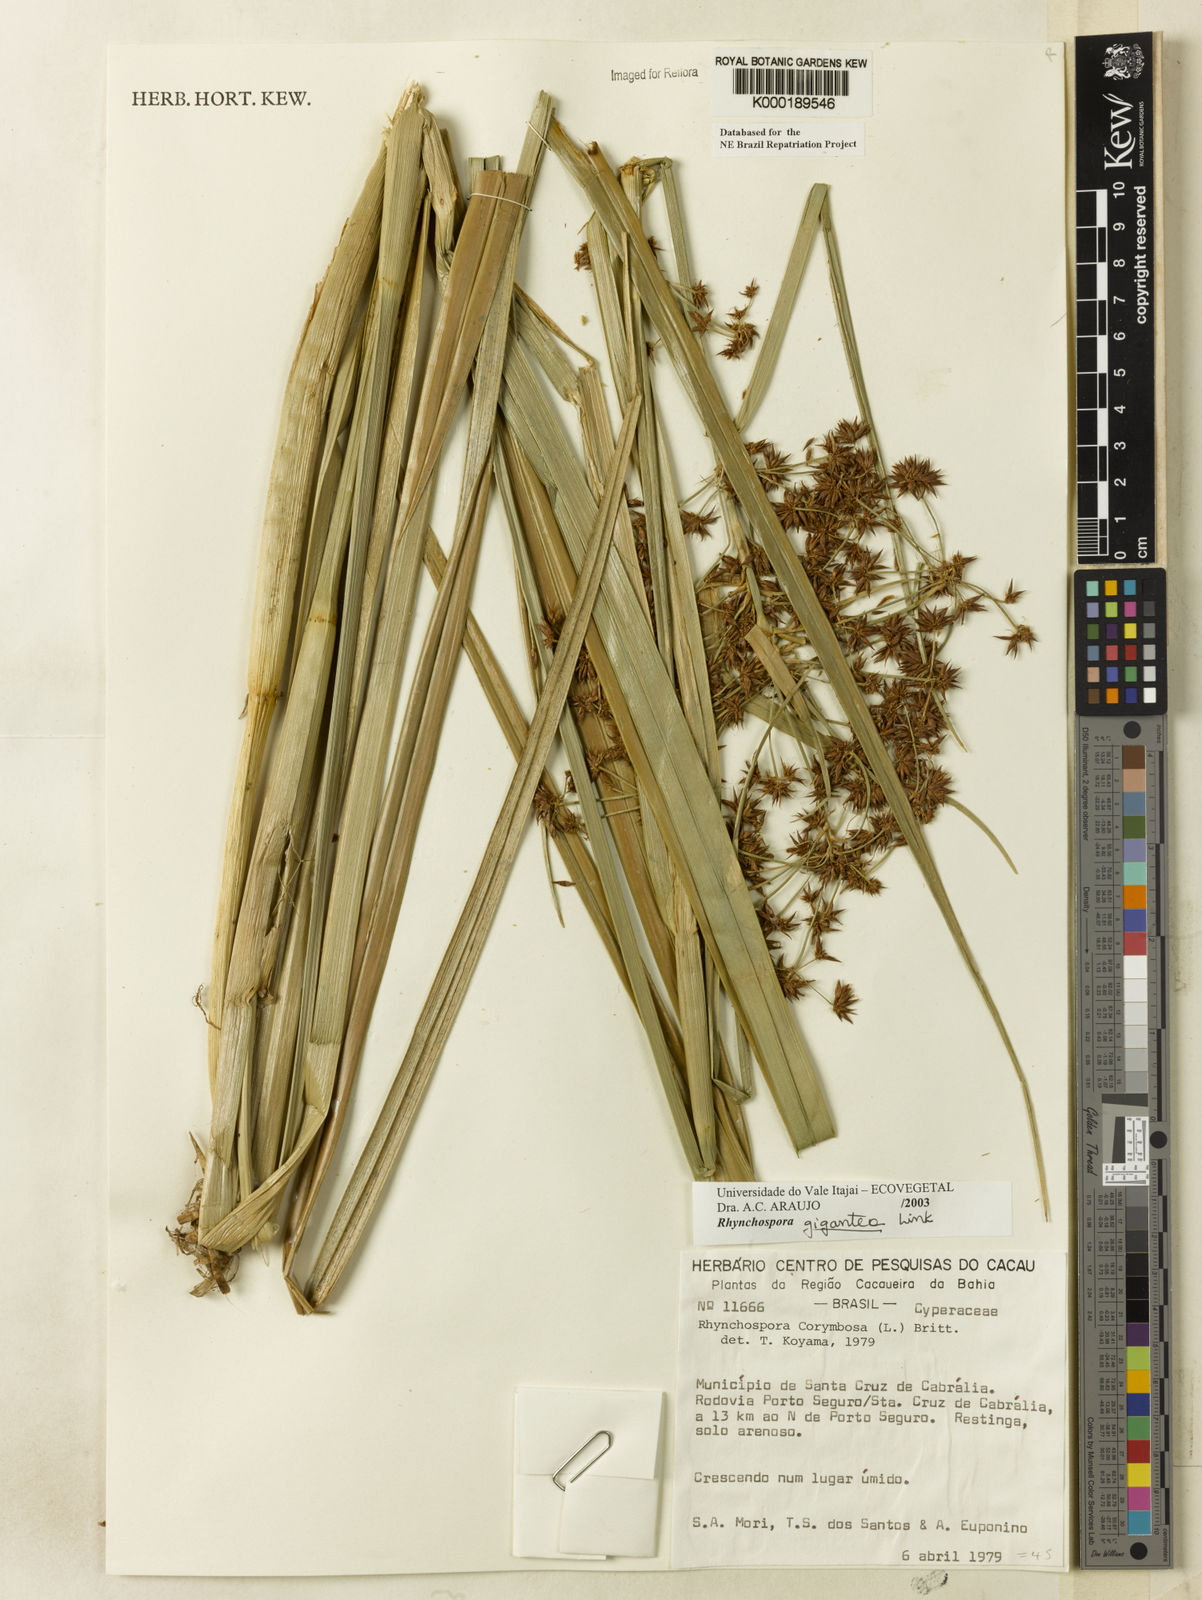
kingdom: Plantae
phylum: Tracheophyta
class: Liliopsida
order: Poales
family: Cyperaceae
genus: Rhynchospora
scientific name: Rhynchospora gigantea
